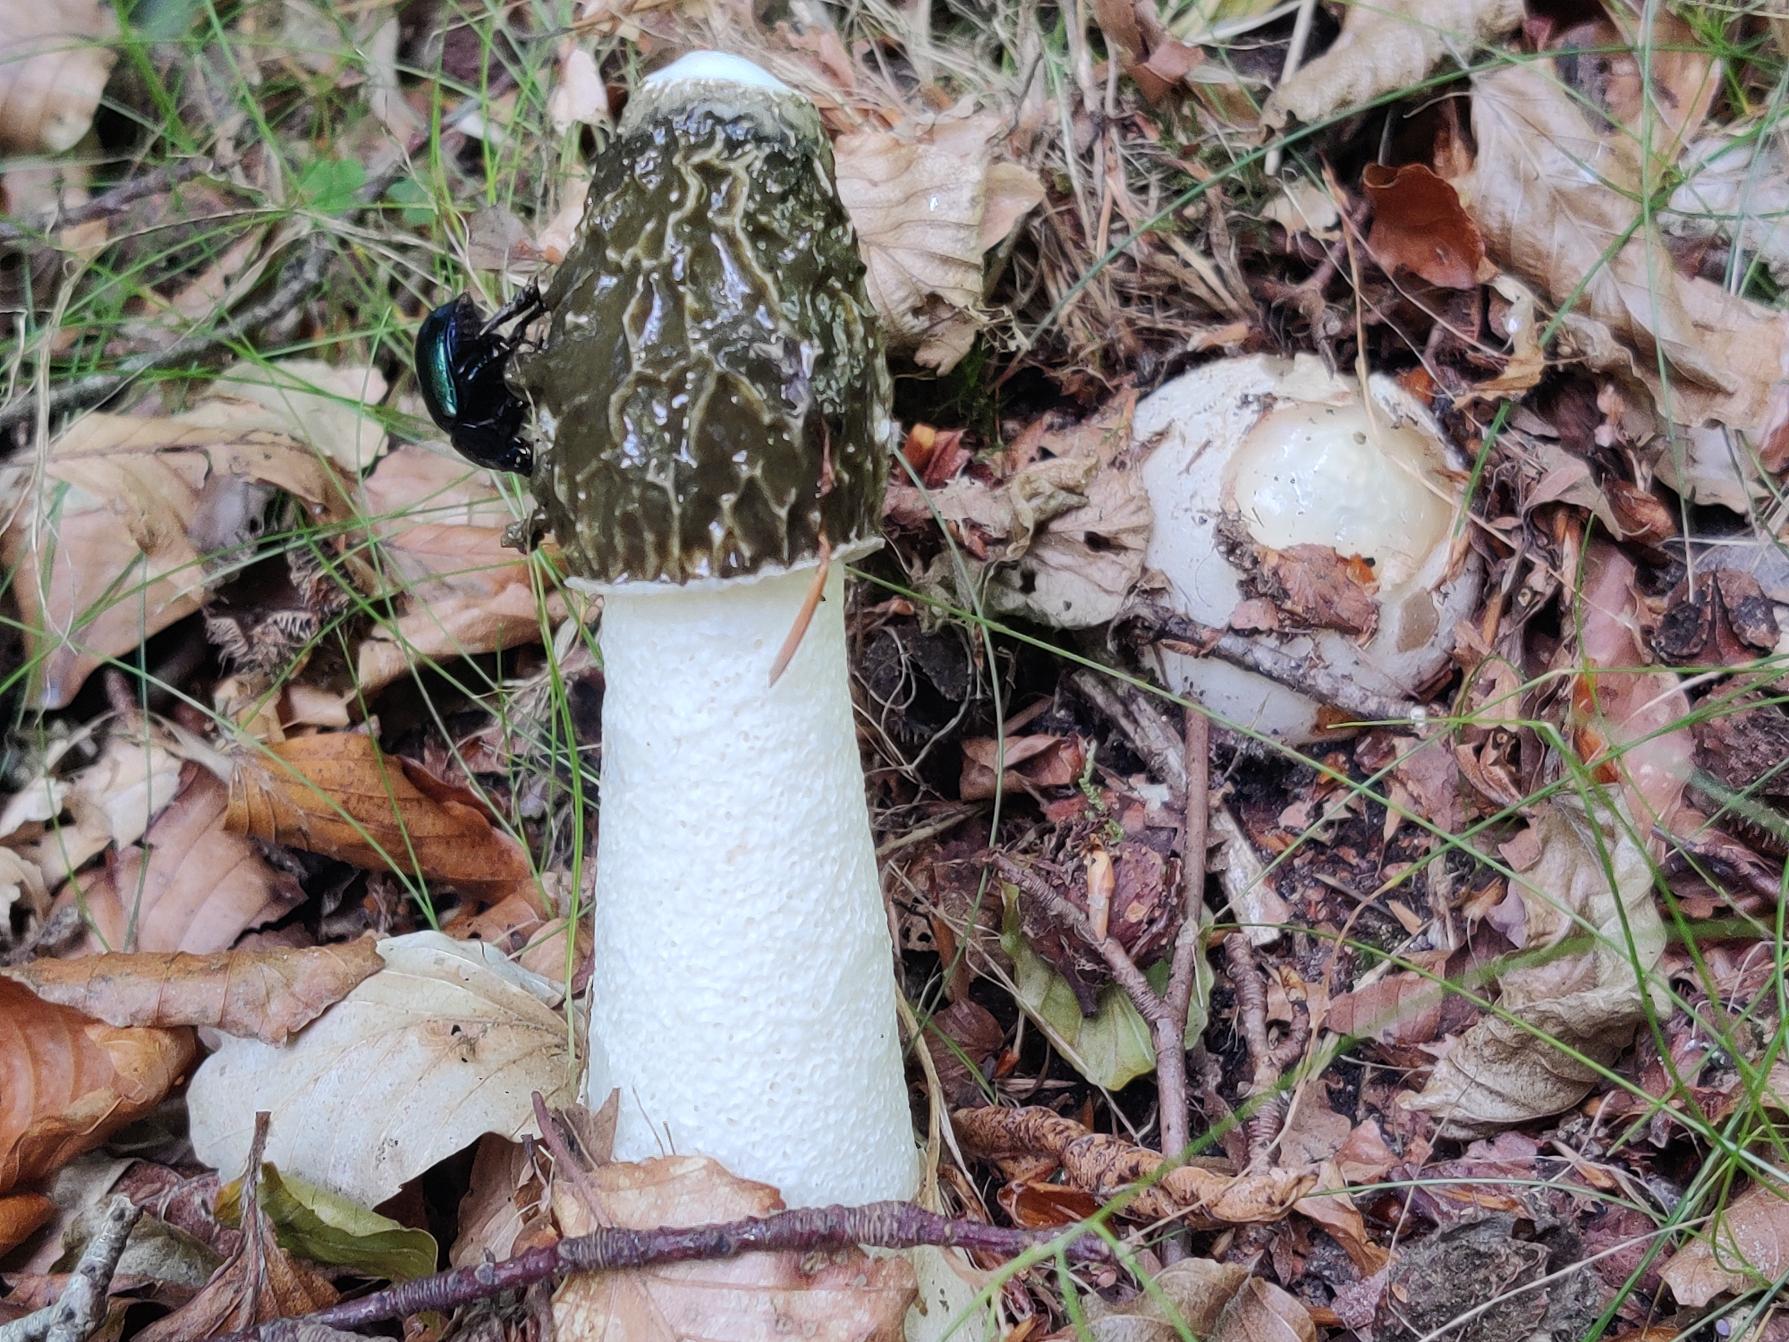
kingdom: Fungi
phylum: Basidiomycota
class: Agaricomycetes
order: Phallales
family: Phallaceae
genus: Phallus
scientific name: Phallus impudicus
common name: Almindelig stinksvamp
